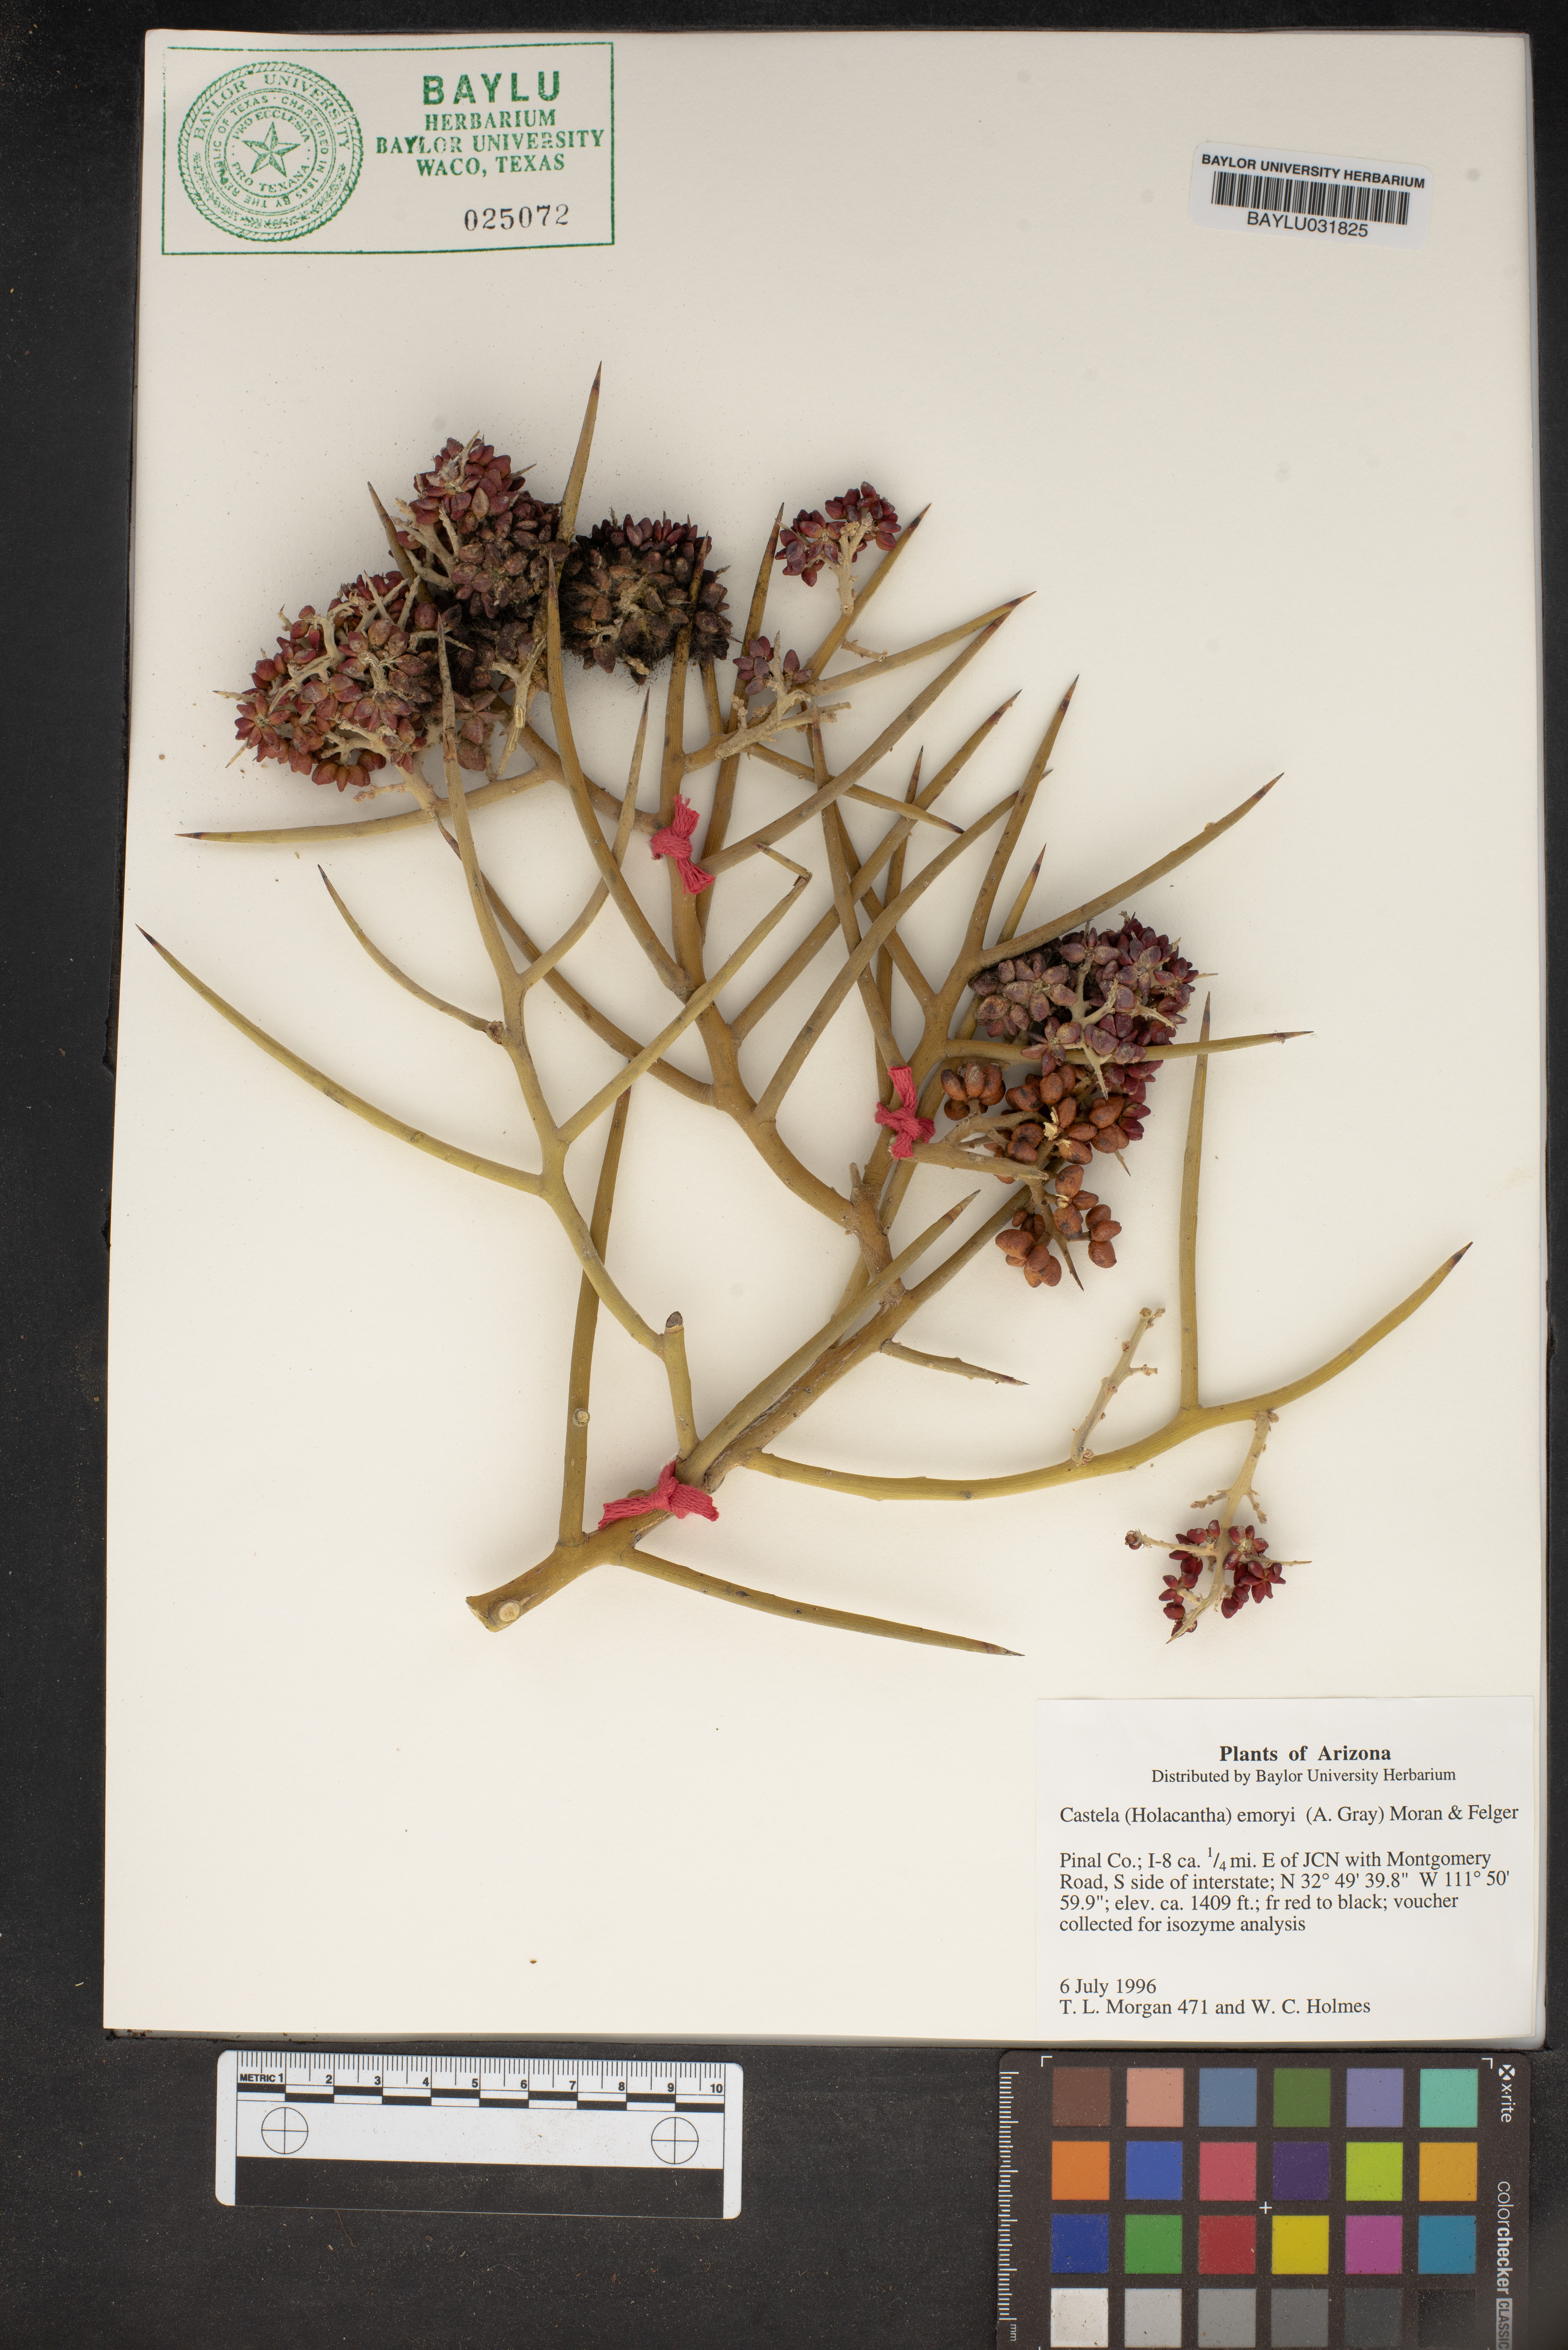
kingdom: Plantae
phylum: Tracheophyta
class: Magnoliopsida
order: Sapindales
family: Simaroubaceae
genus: Holacantha
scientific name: Holacantha emoryi
